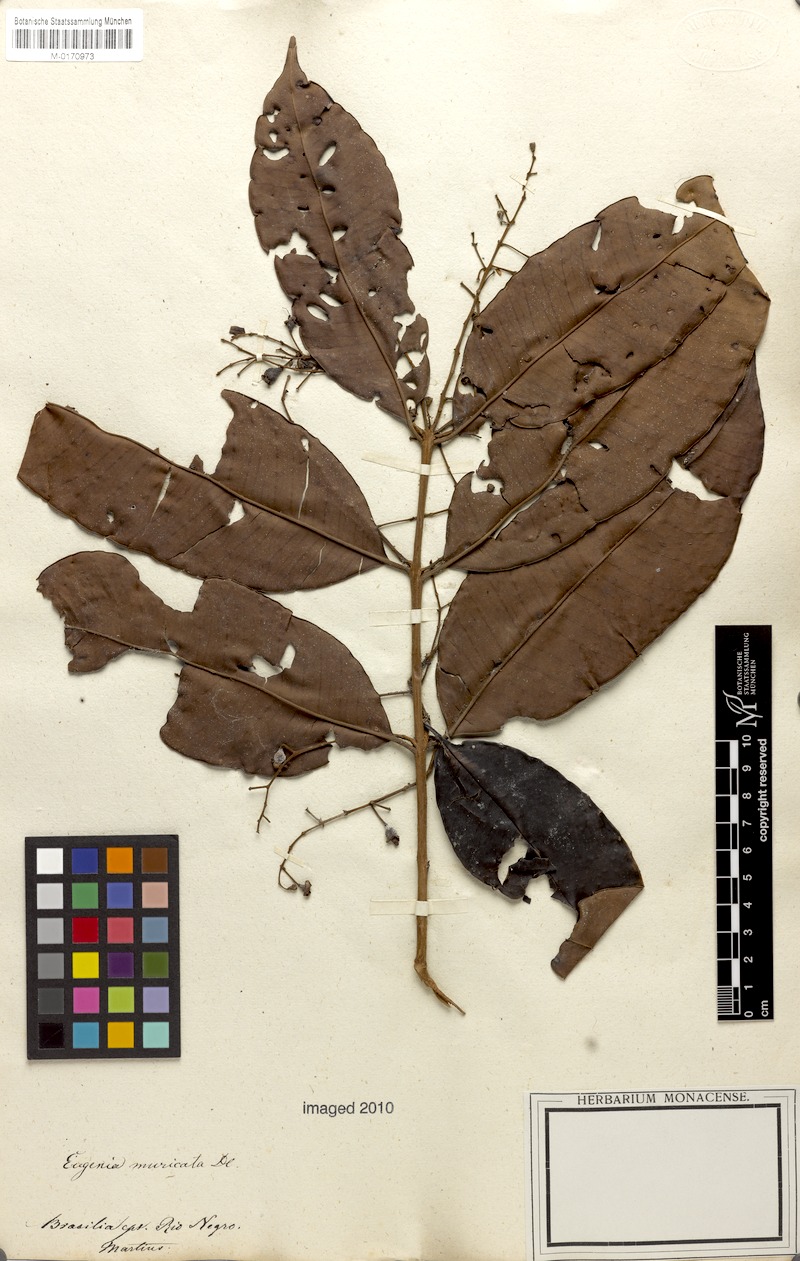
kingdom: Plantae
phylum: Tracheophyta
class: Magnoliopsida
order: Myrtales
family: Myrtaceae
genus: Eugenia
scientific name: Eugenia patens
